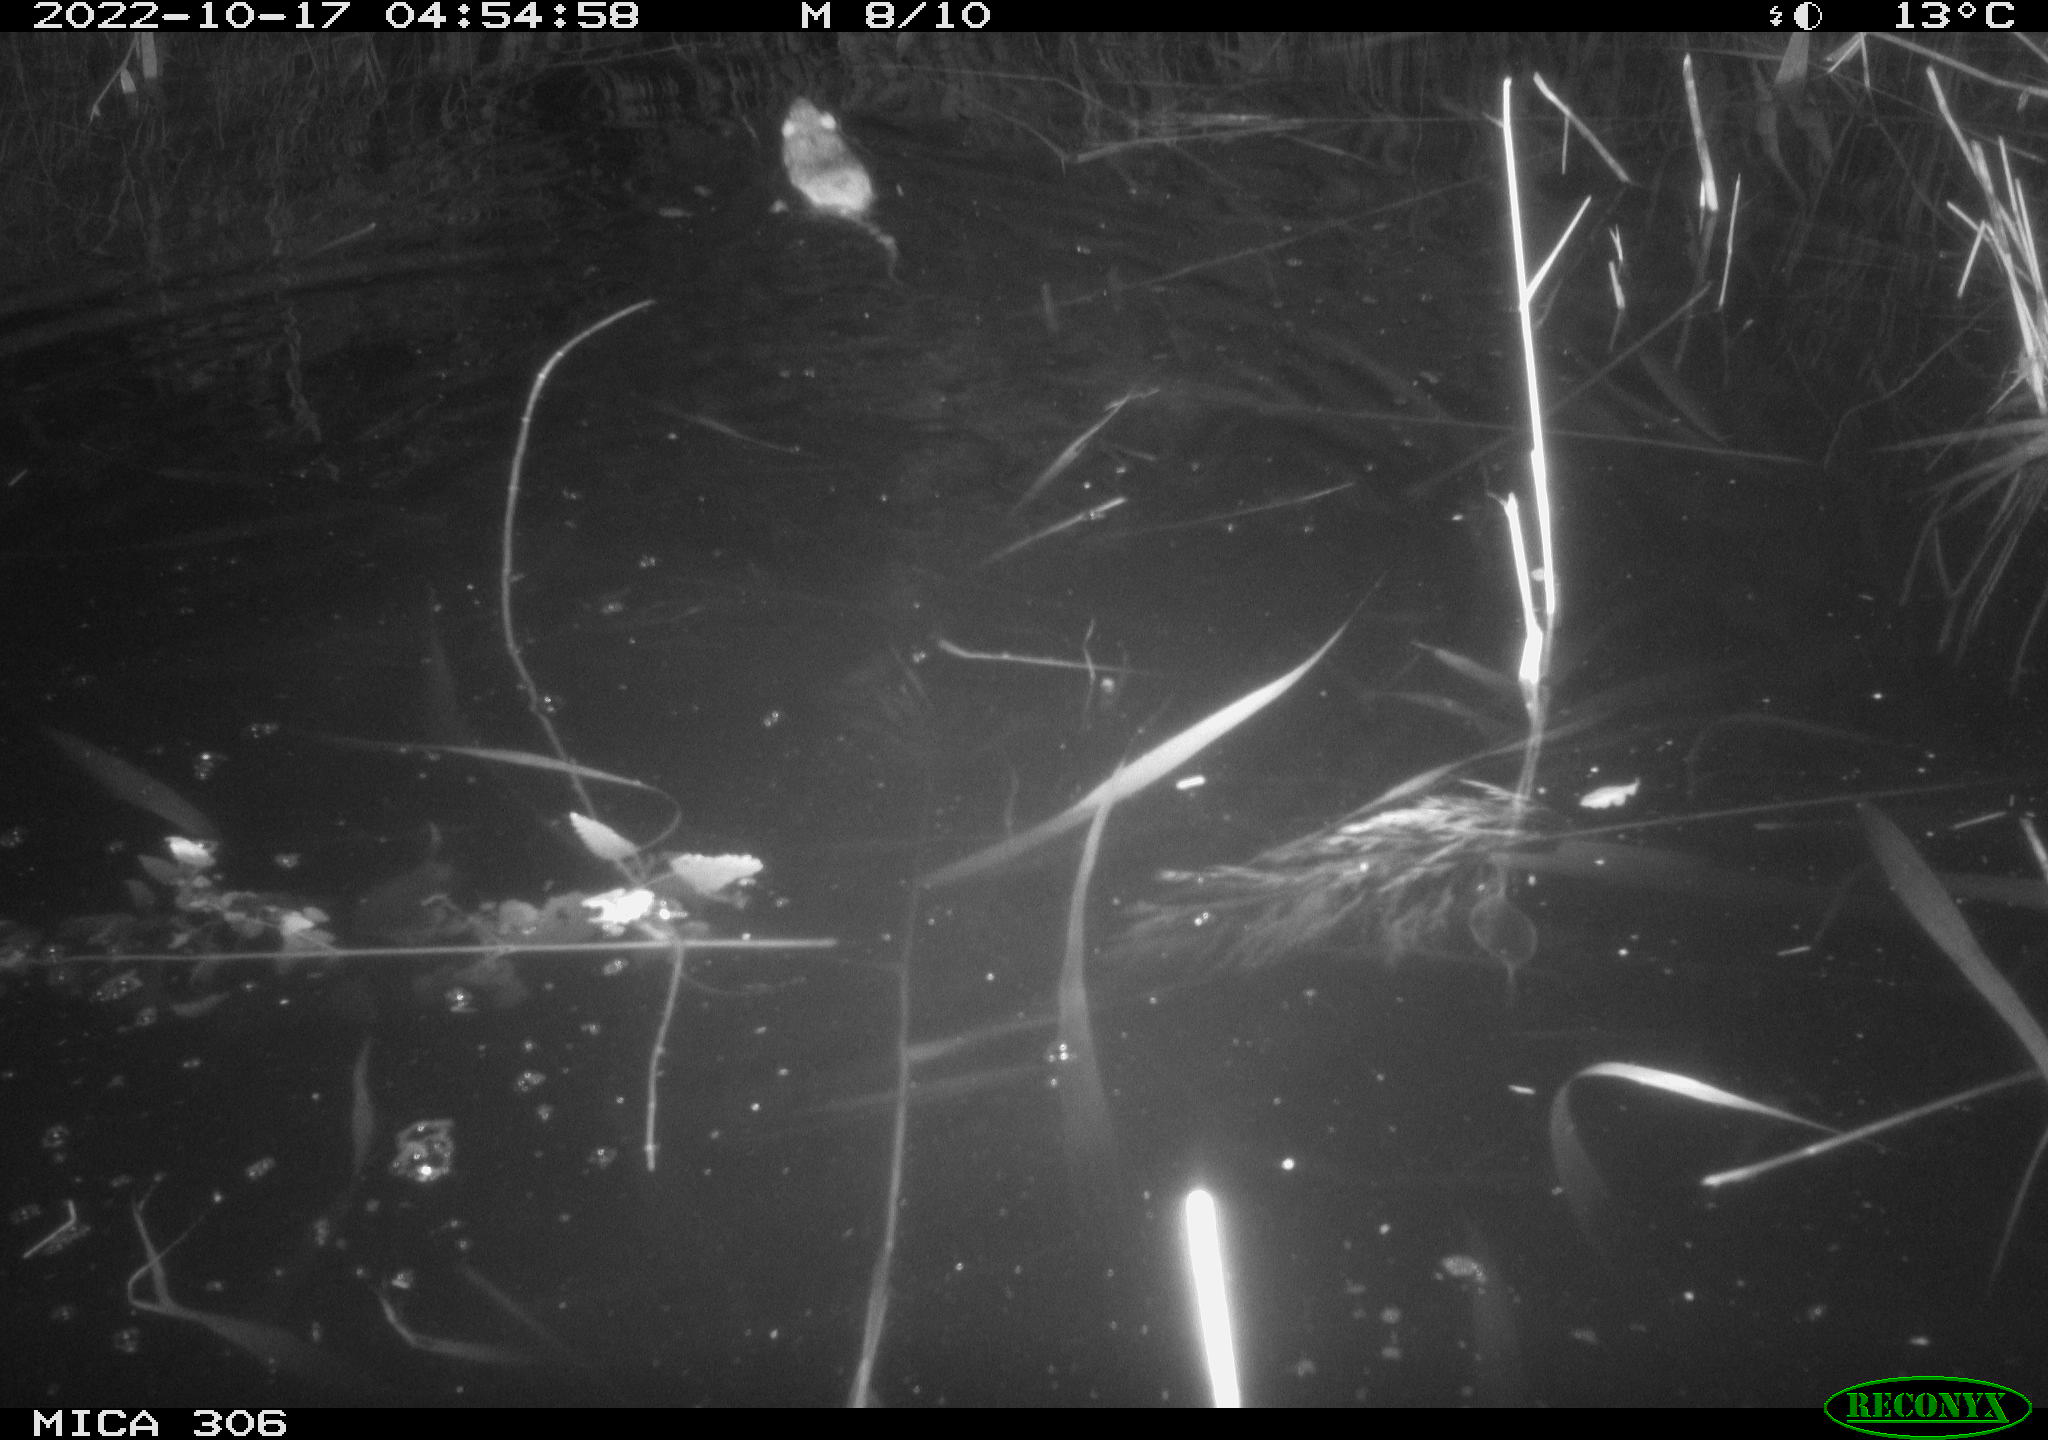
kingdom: Animalia
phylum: Chordata
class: Mammalia
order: Rodentia
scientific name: Rodentia
